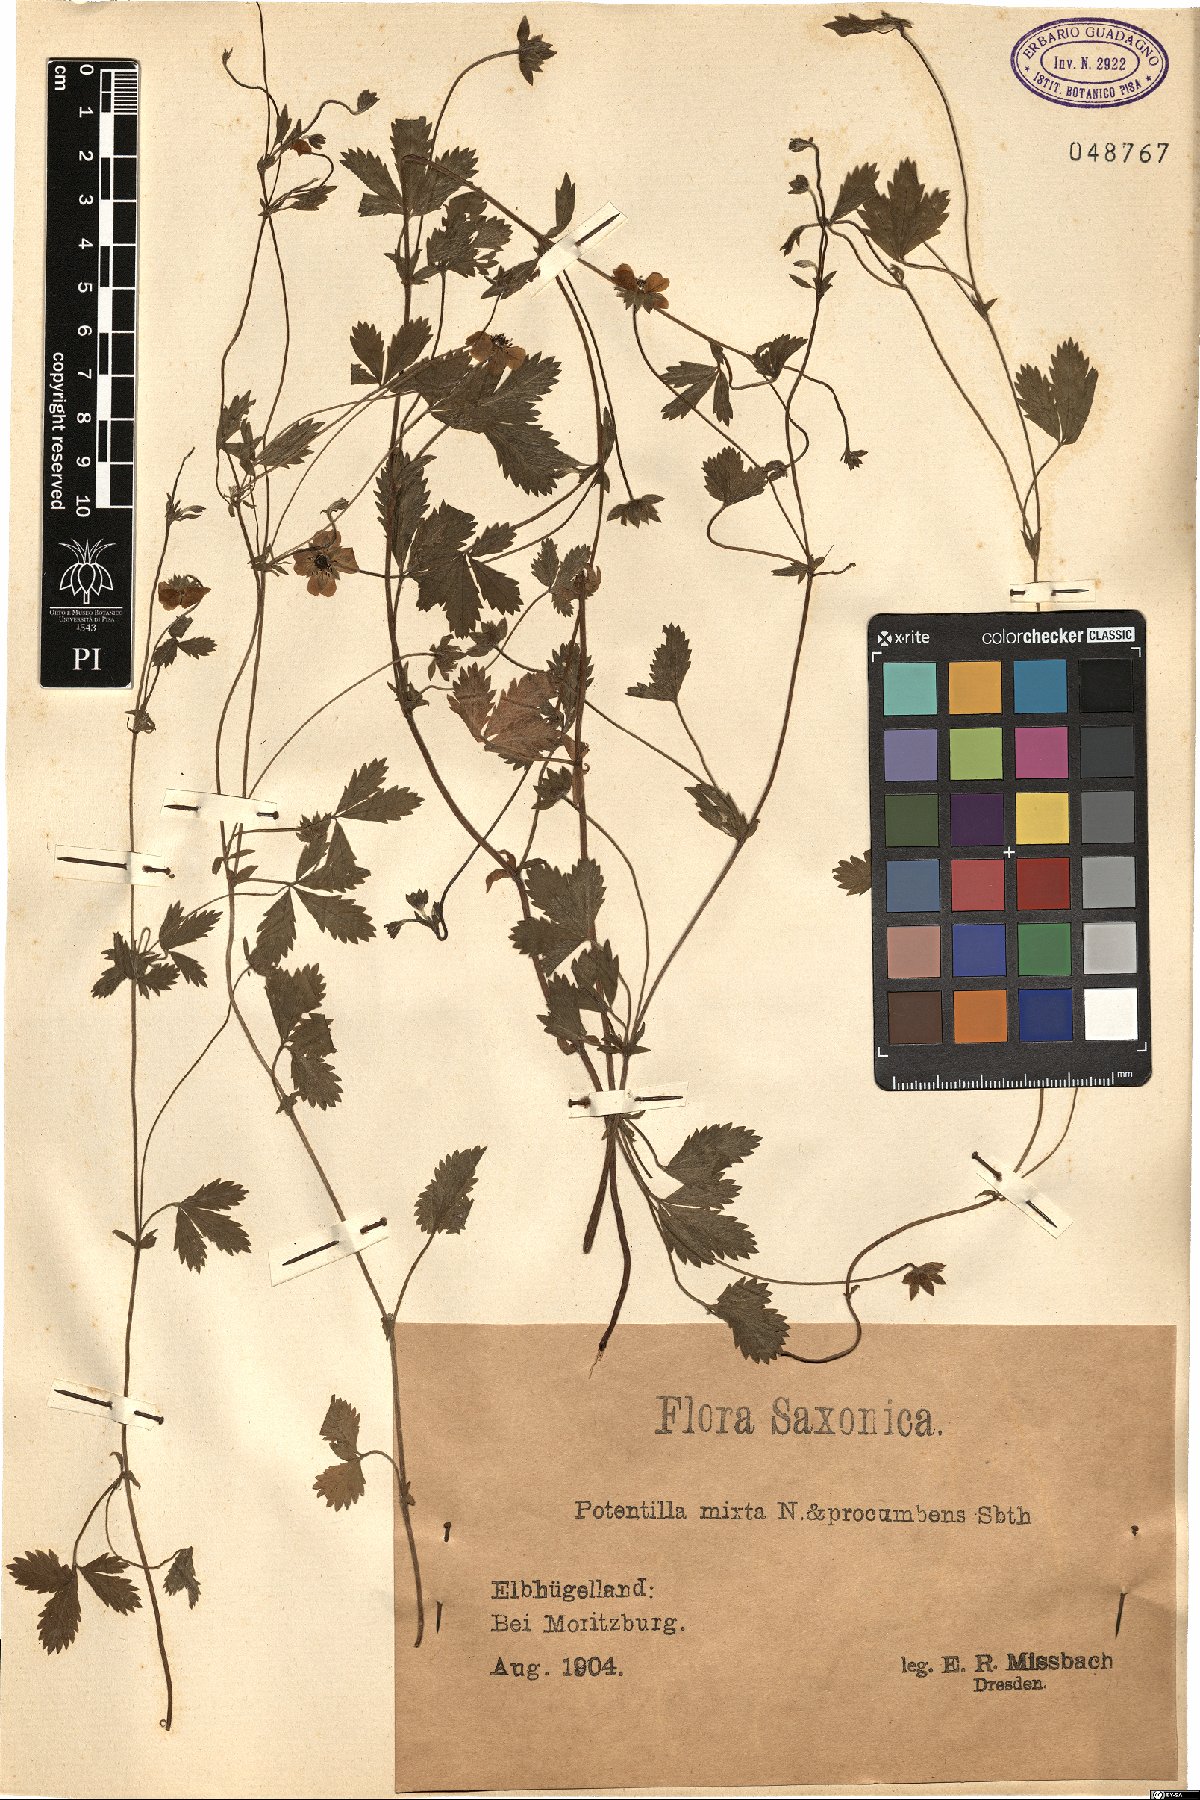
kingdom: Plantae
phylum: Tracheophyta
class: Magnoliopsida
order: Rosales
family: Rosaceae
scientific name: Rosaceae
